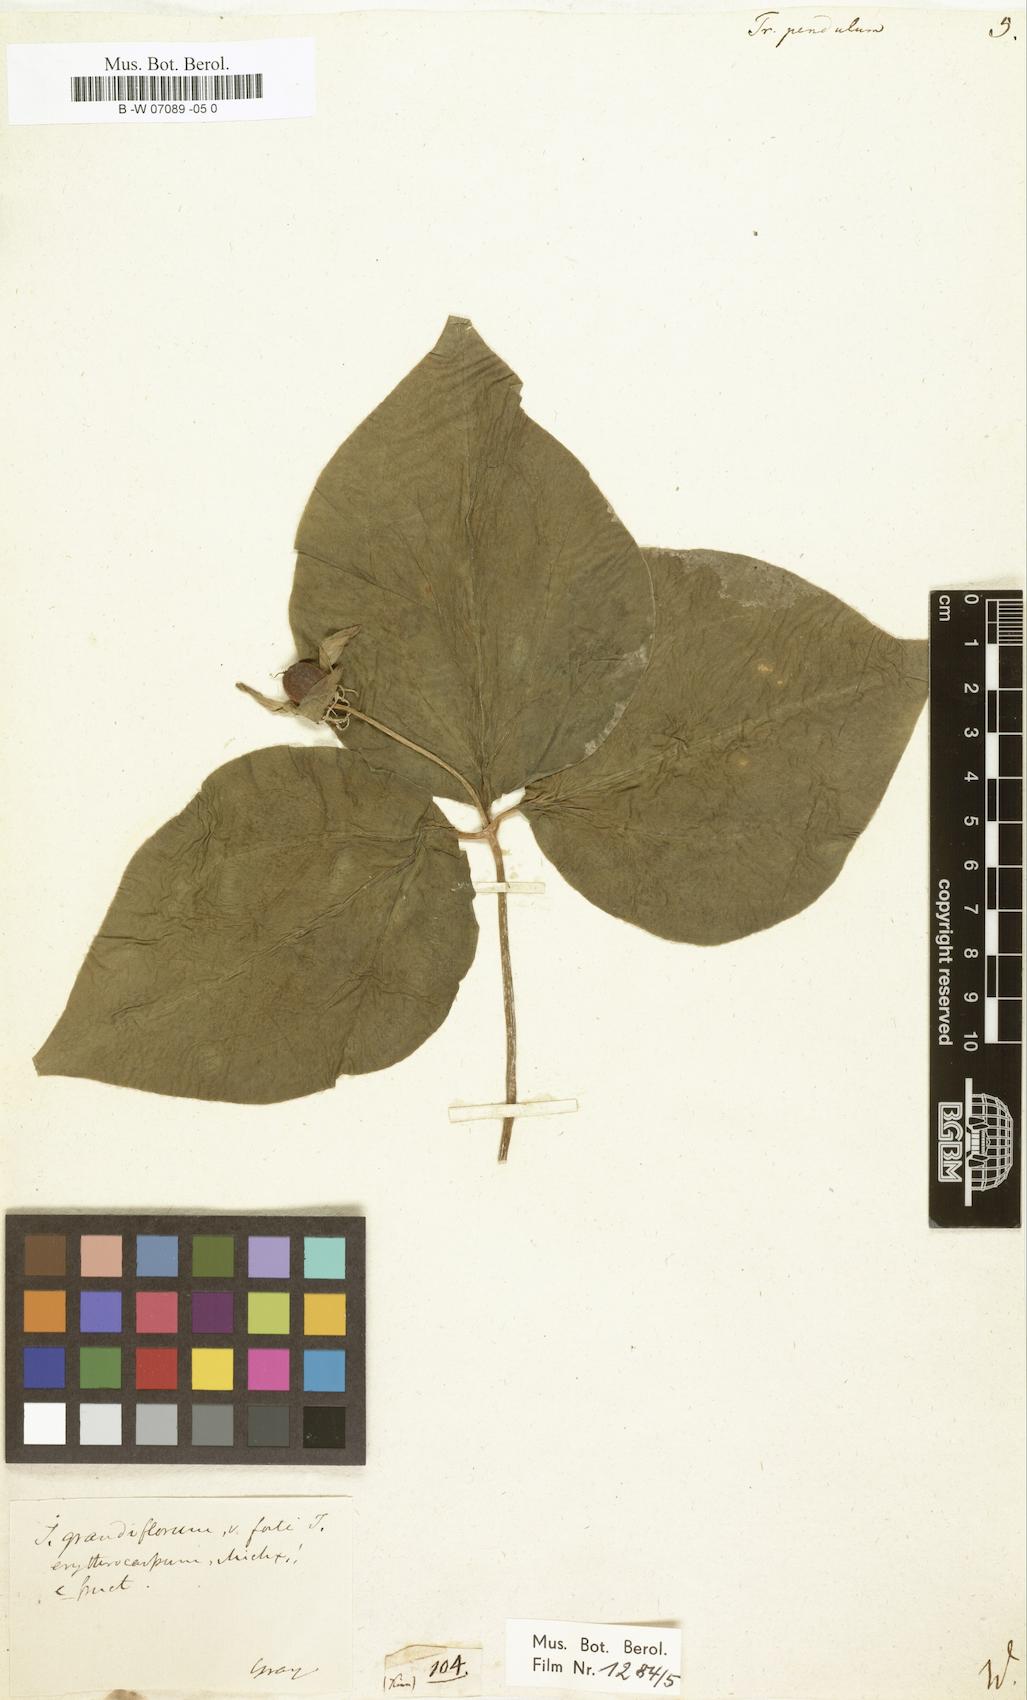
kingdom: Plantae
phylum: Tracheophyta
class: Liliopsida
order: Liliales
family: Melanthiaceae
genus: Trillium
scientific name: Trillium erectum
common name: Purple trillium
